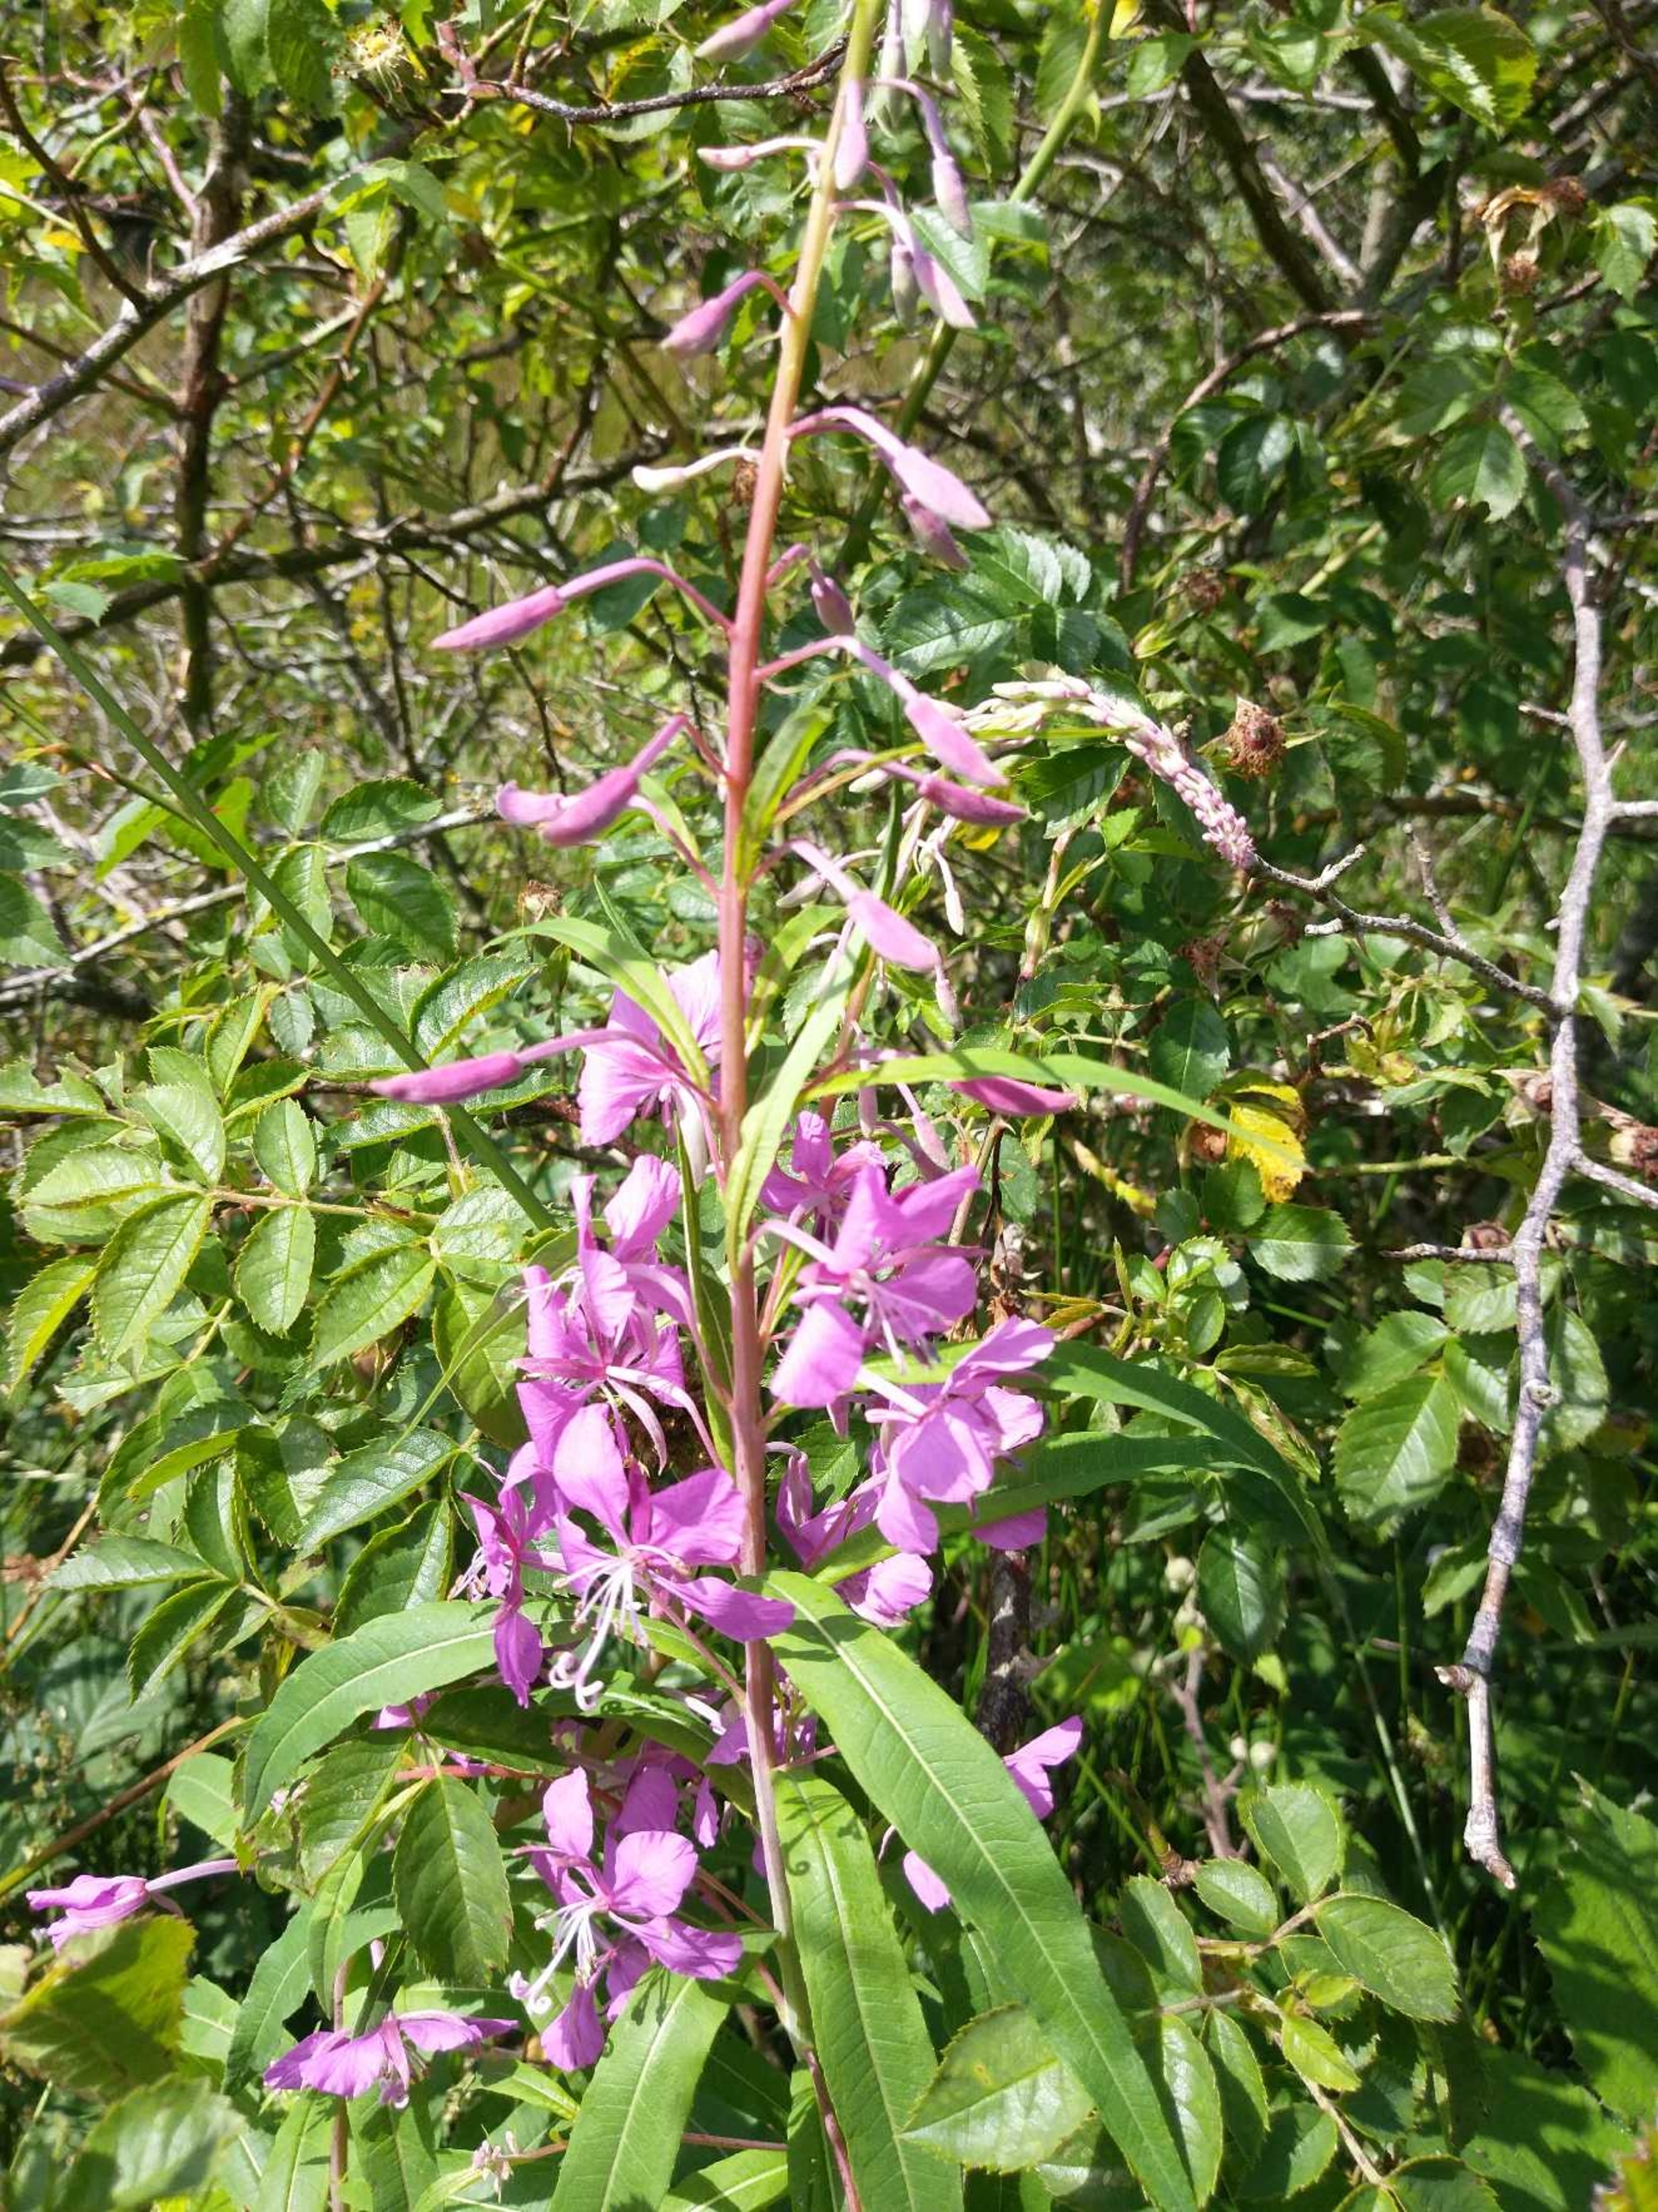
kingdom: Plantae
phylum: Tracheophyta
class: Magnoliopsida
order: Myrtales
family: Onagraceae
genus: Chamaenerion
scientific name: Chamaenerion angustifolium
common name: Gederams
